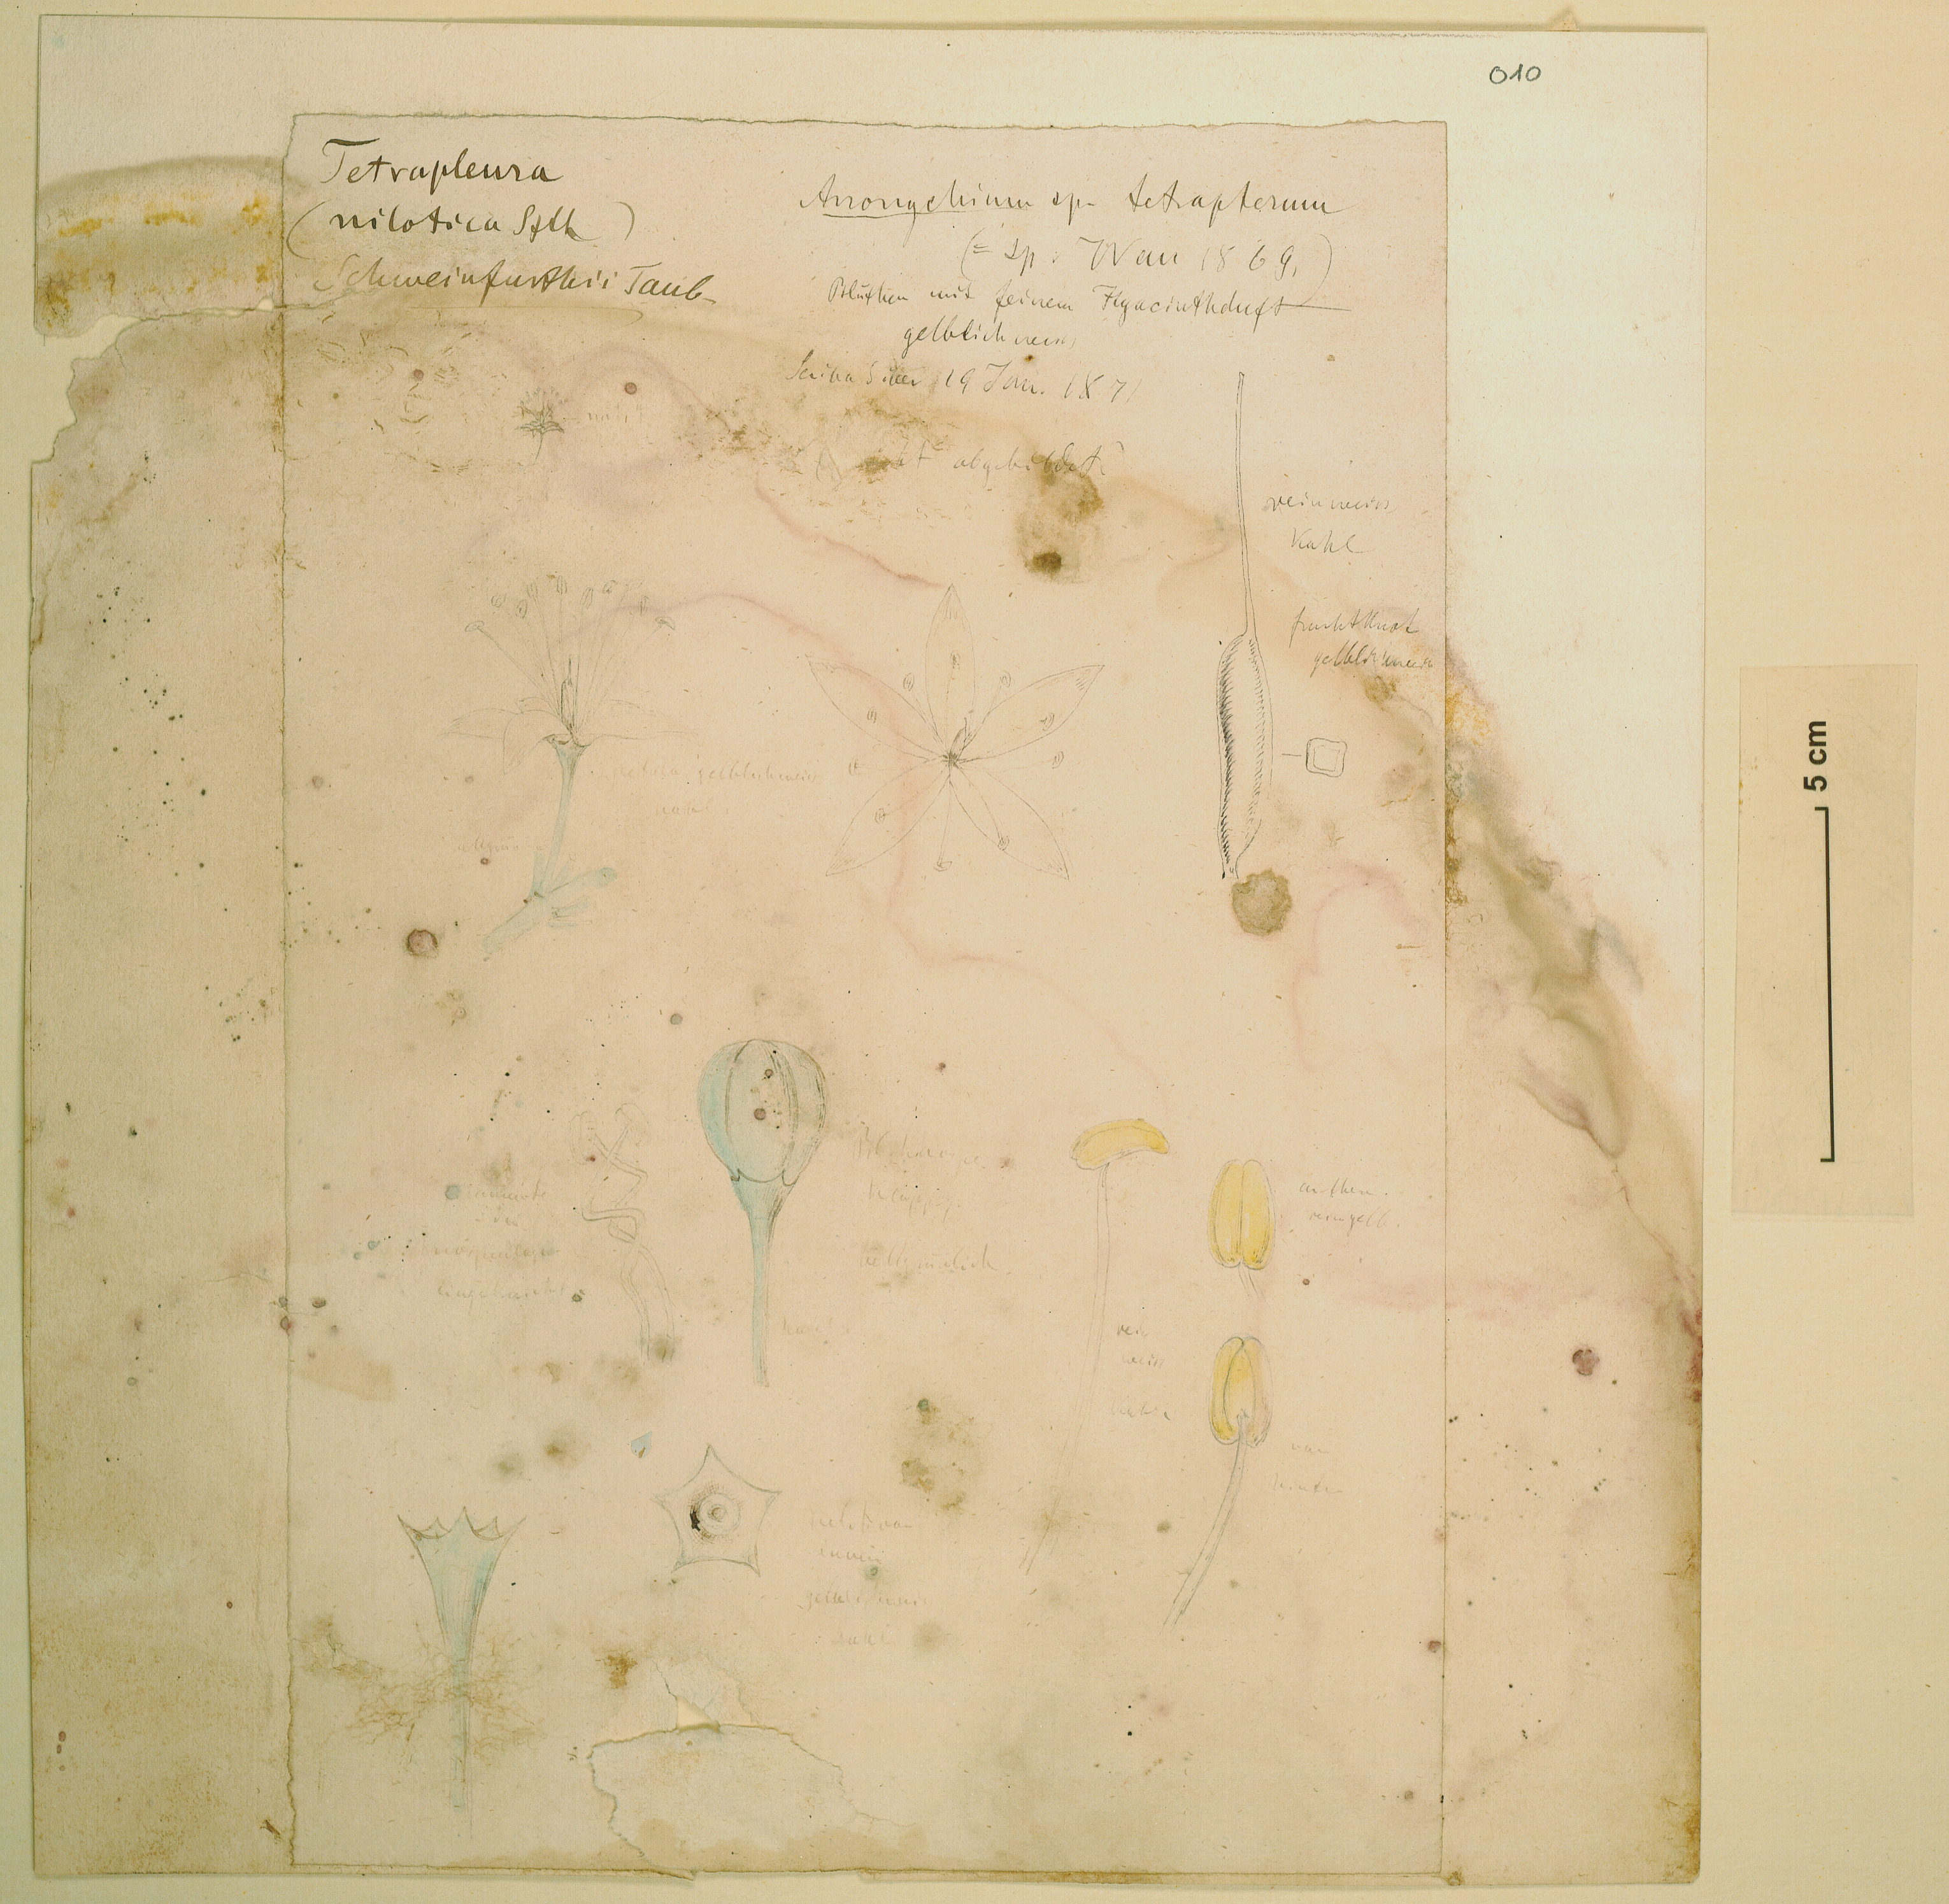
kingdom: Plantae
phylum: Tracheophyta
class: Magnoliopsida
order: Fabales
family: Fabaceae
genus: Amblygonocarpus
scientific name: Amblygonocarpus andongensis
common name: Bangawanga
